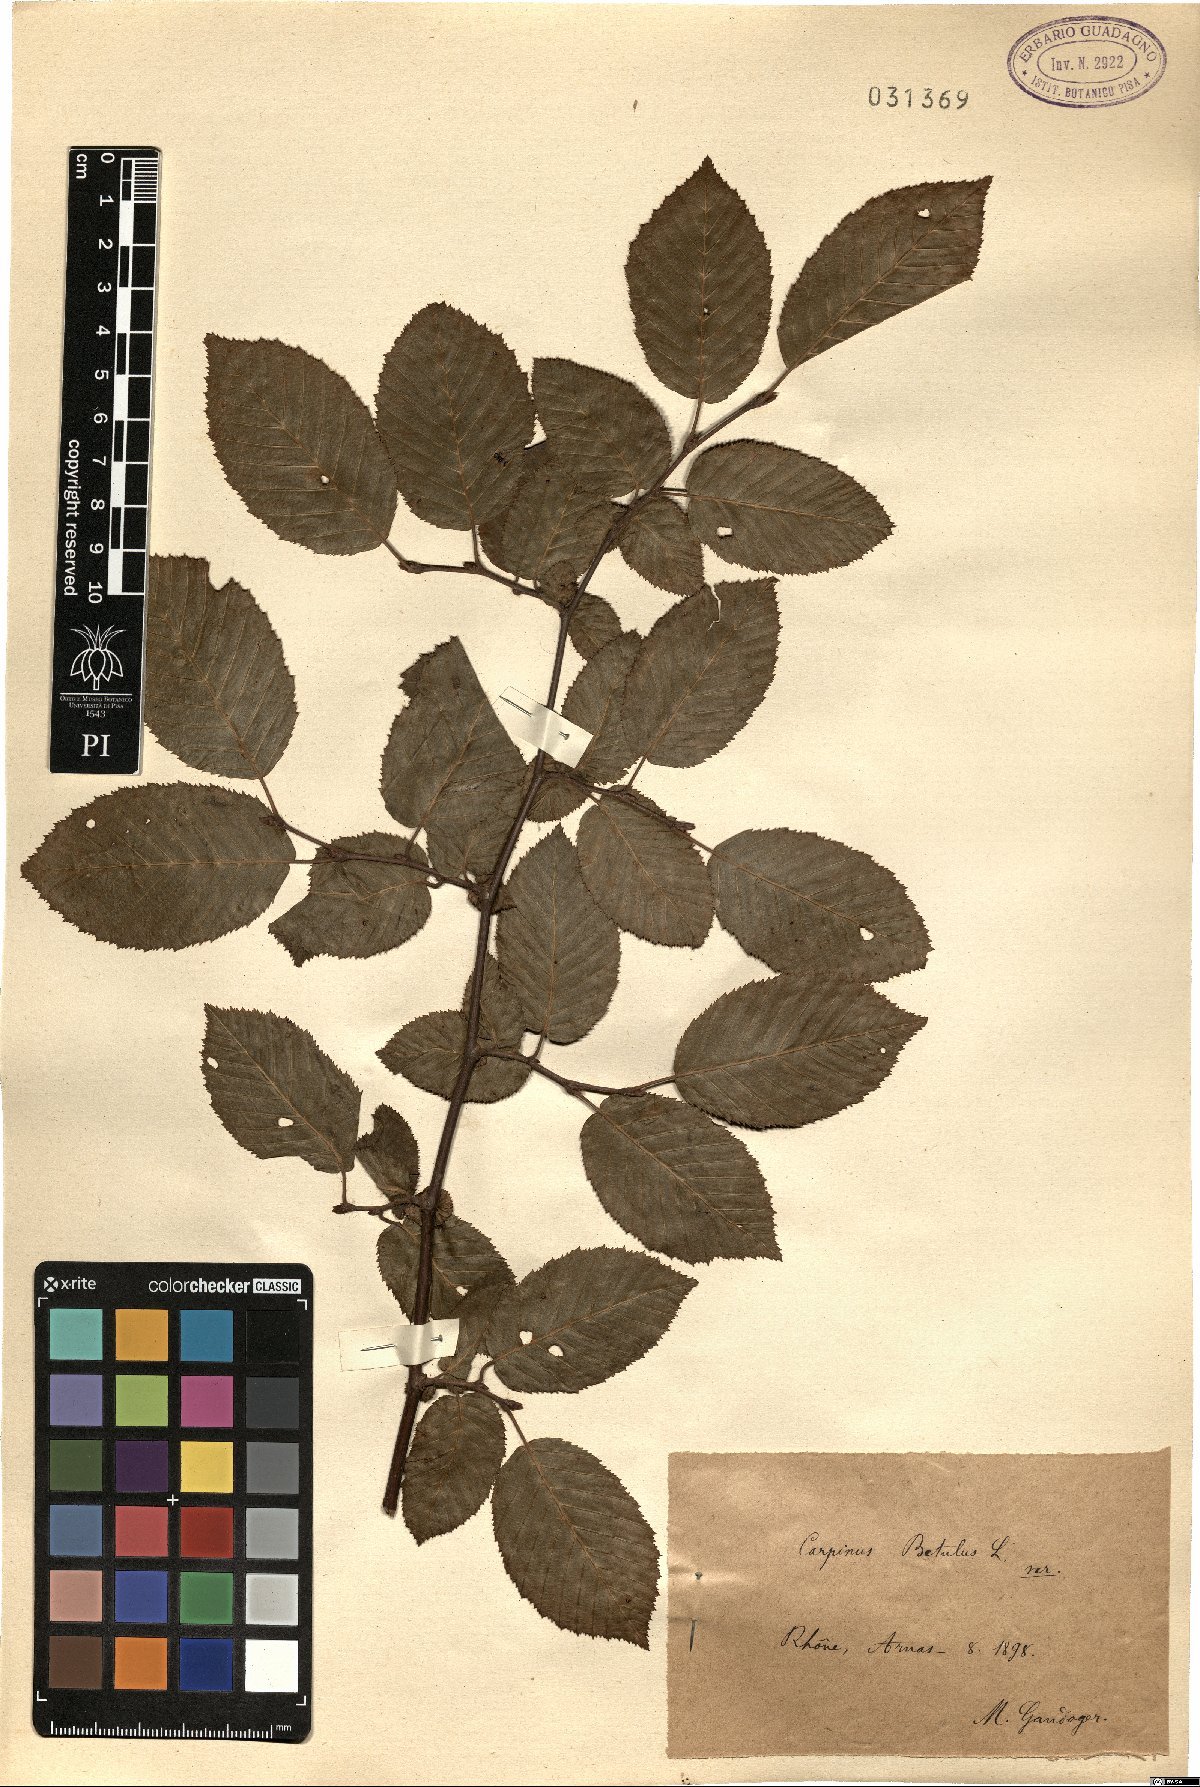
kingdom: Plantae
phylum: Tracheophyta
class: Magnoliopsida
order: Fagales
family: Betulaceae
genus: Carpinus
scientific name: Carpinus betulus
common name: Hornbeam
